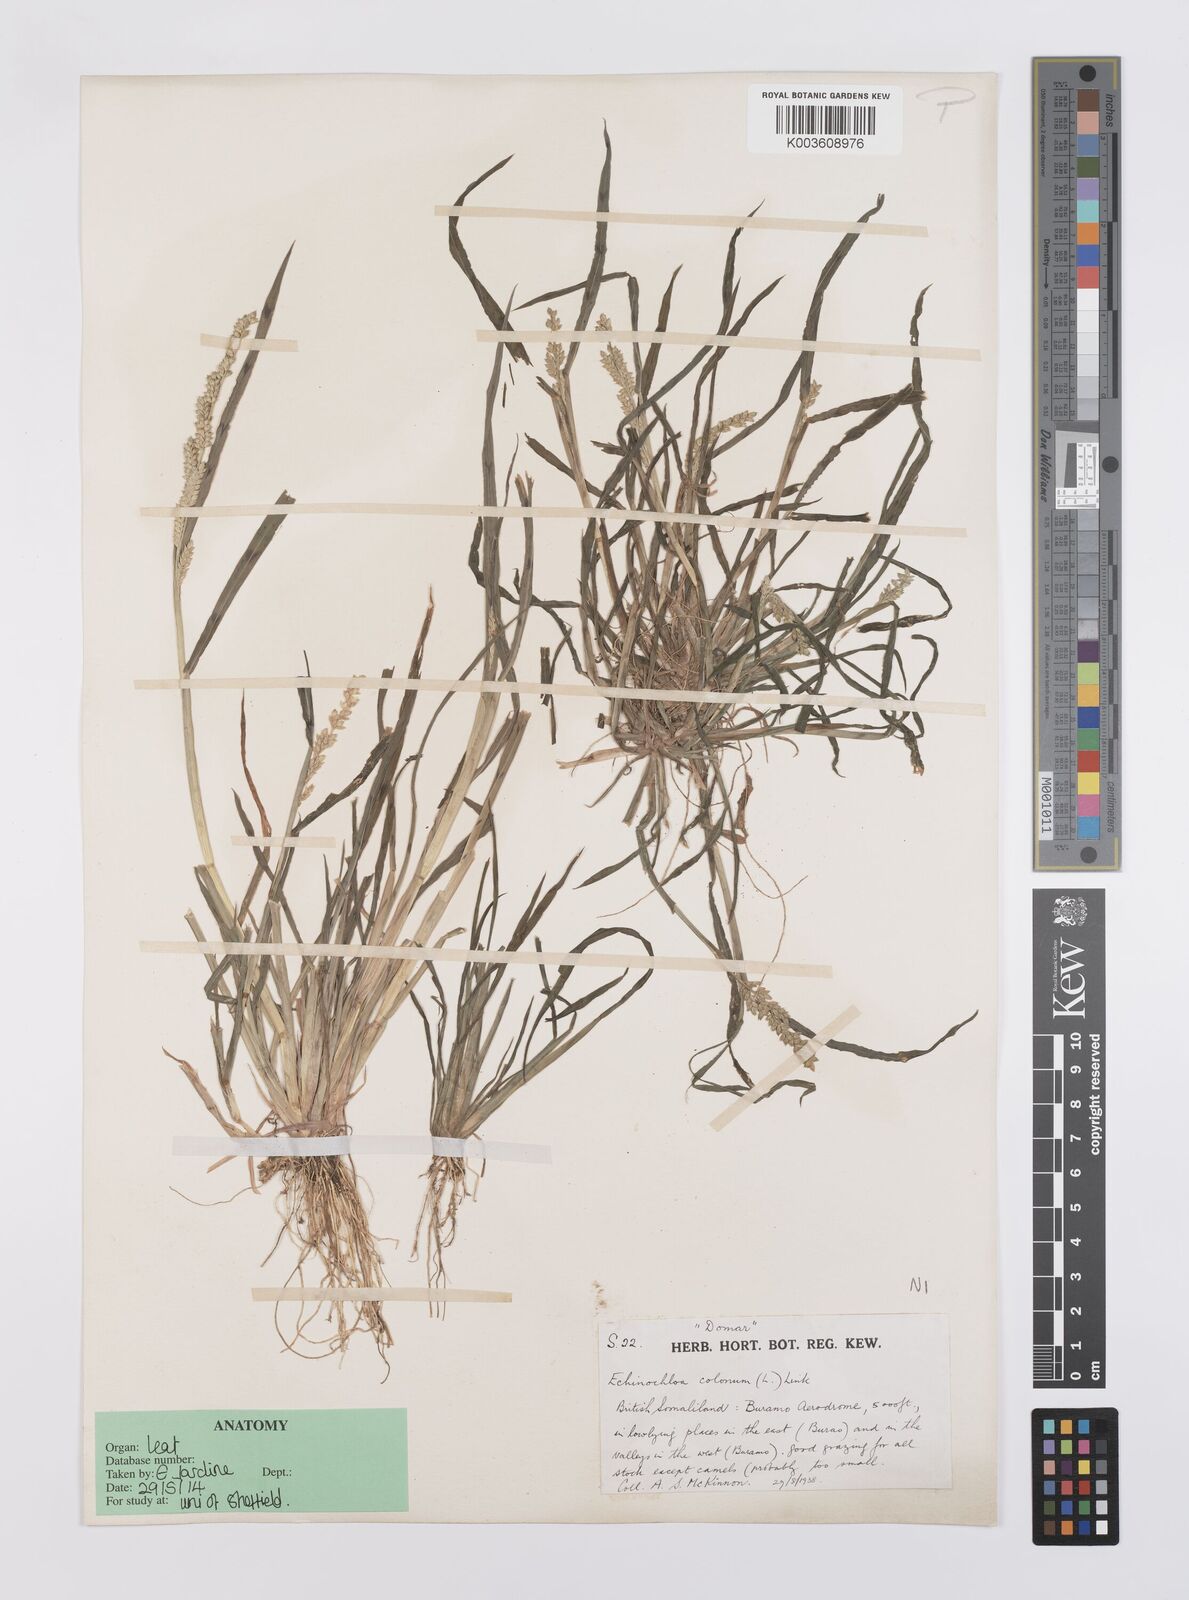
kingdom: Plantae
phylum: Tracheophyta
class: Liliopsida
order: Poales
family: Poaceae
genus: Echinochloa
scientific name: Echinochloa colonum
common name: Jungle rice
